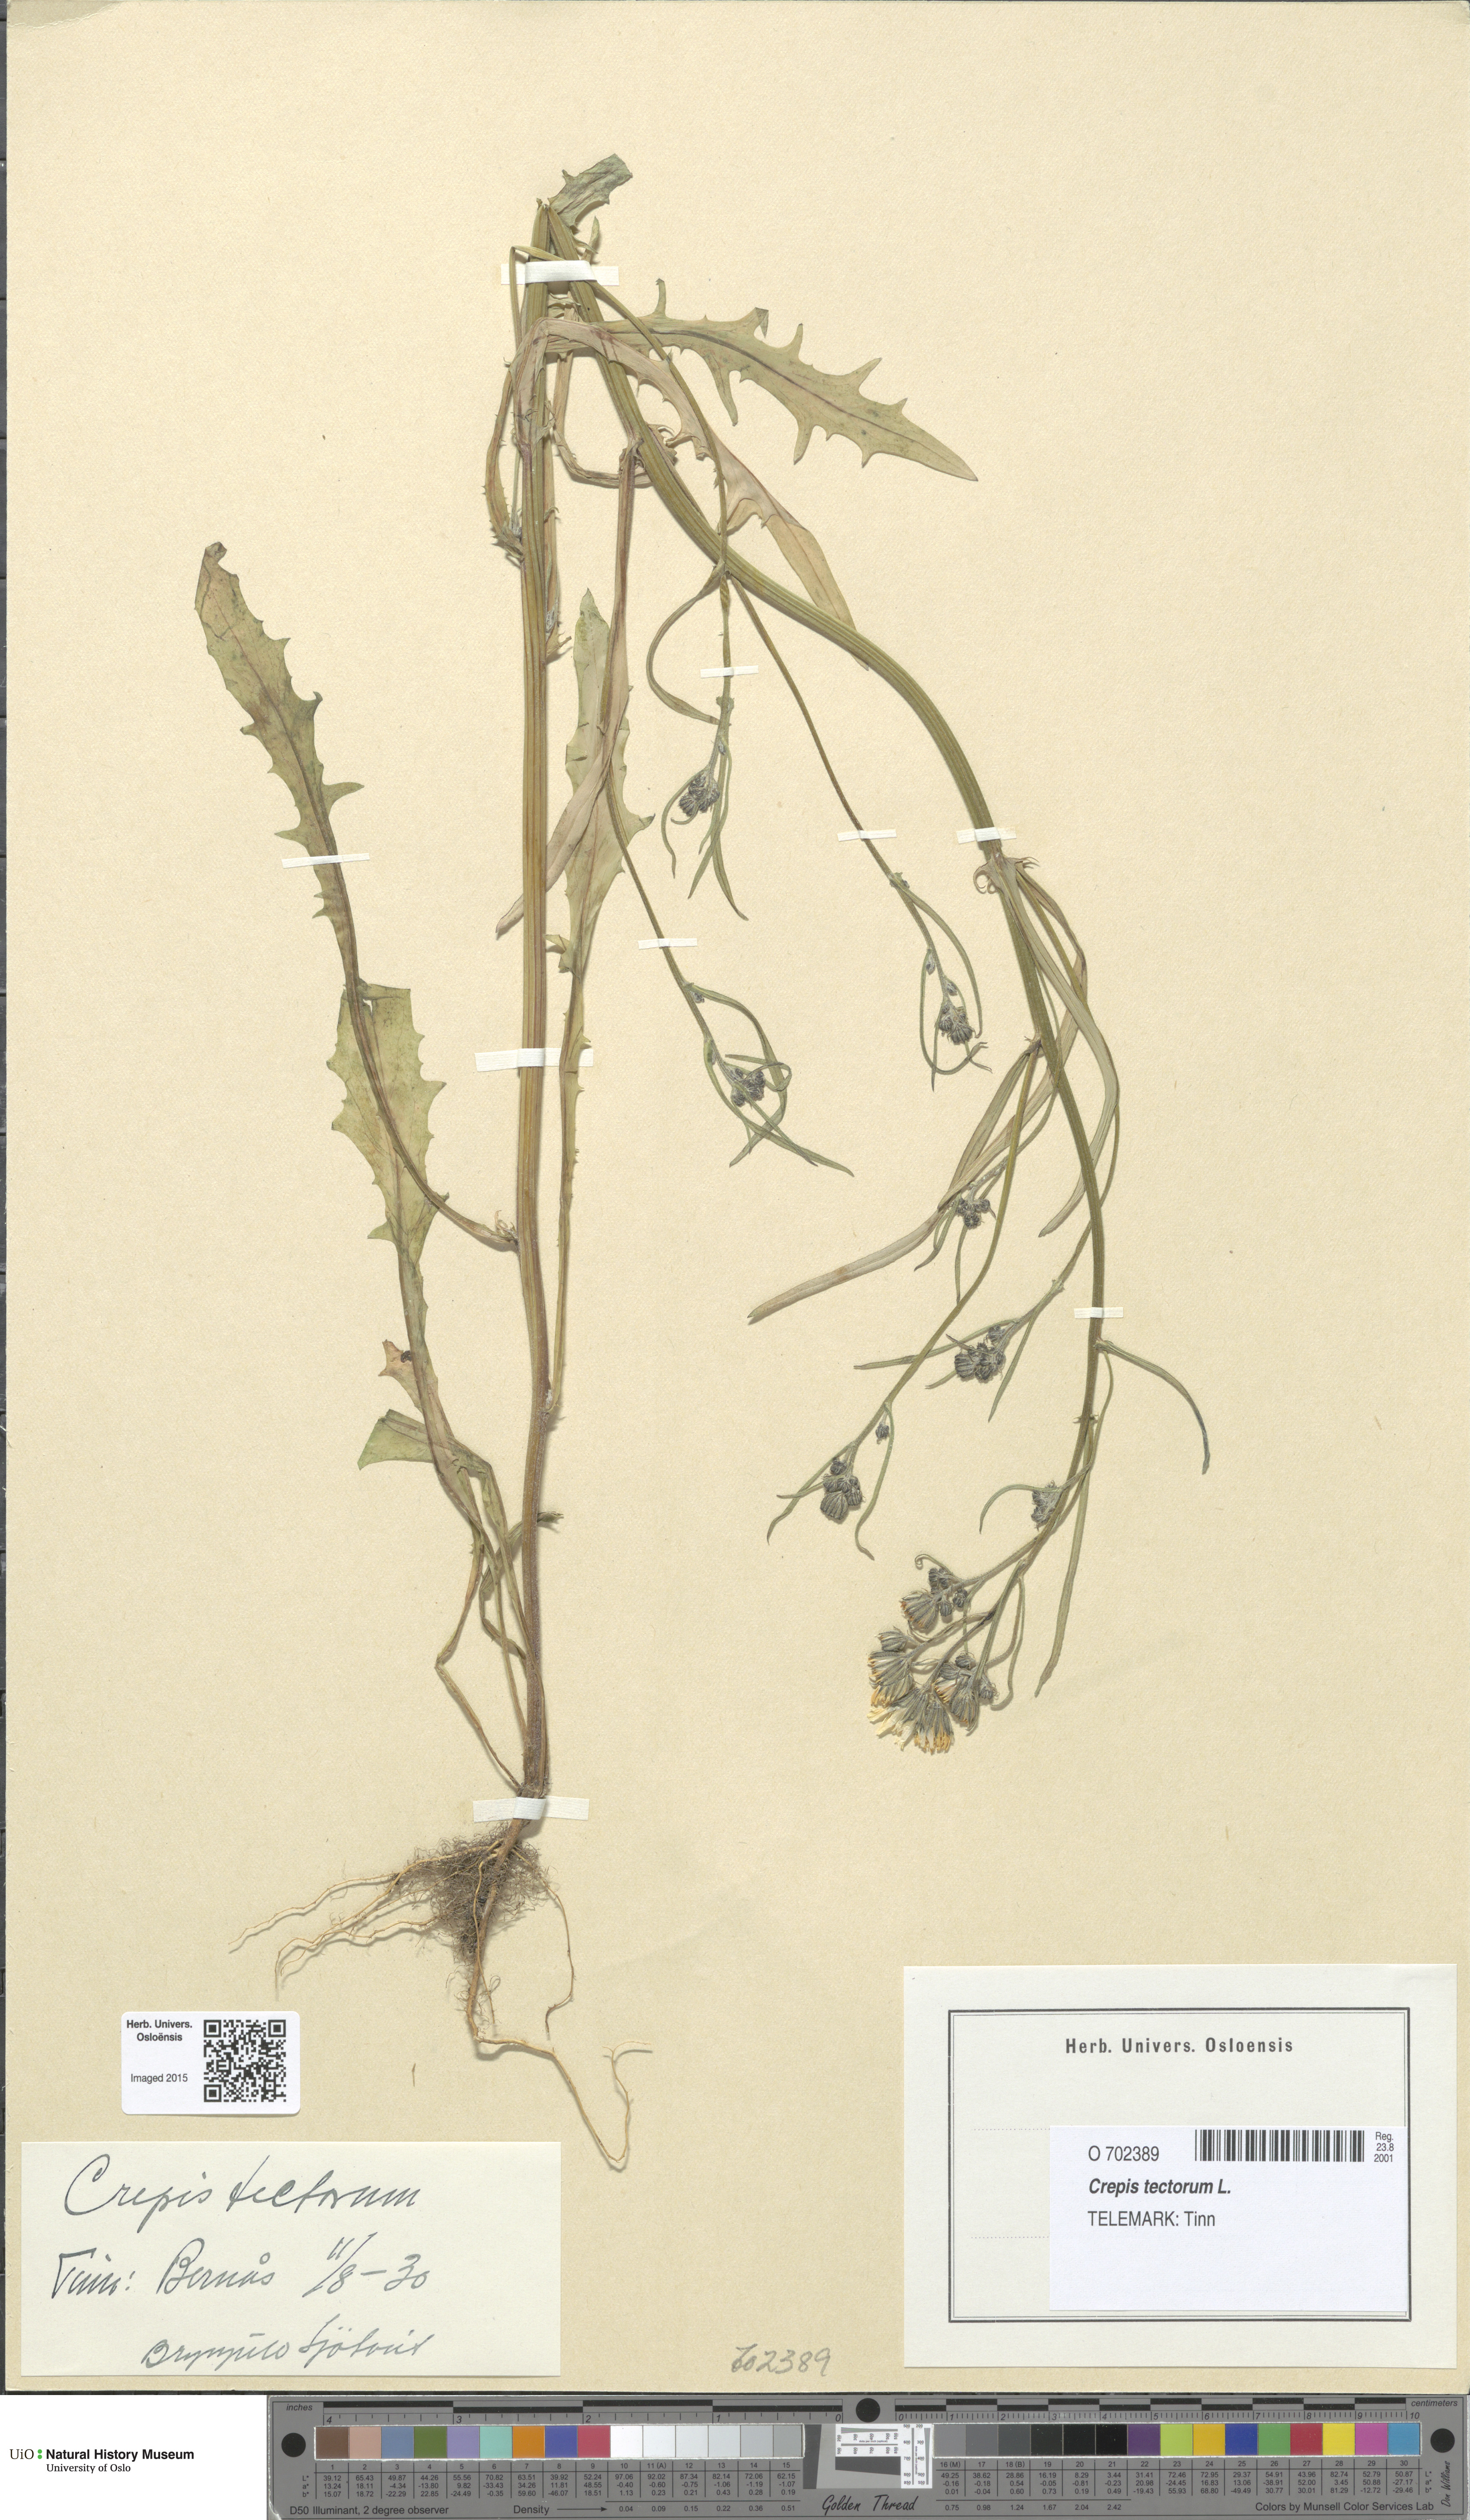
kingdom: Plantae
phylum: Tracheophyta
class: Magnoliopsida
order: Asterales
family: Asteraceae
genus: Crepis
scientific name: Crepis tectorum
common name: Narrow-leaved hawk's-beard
